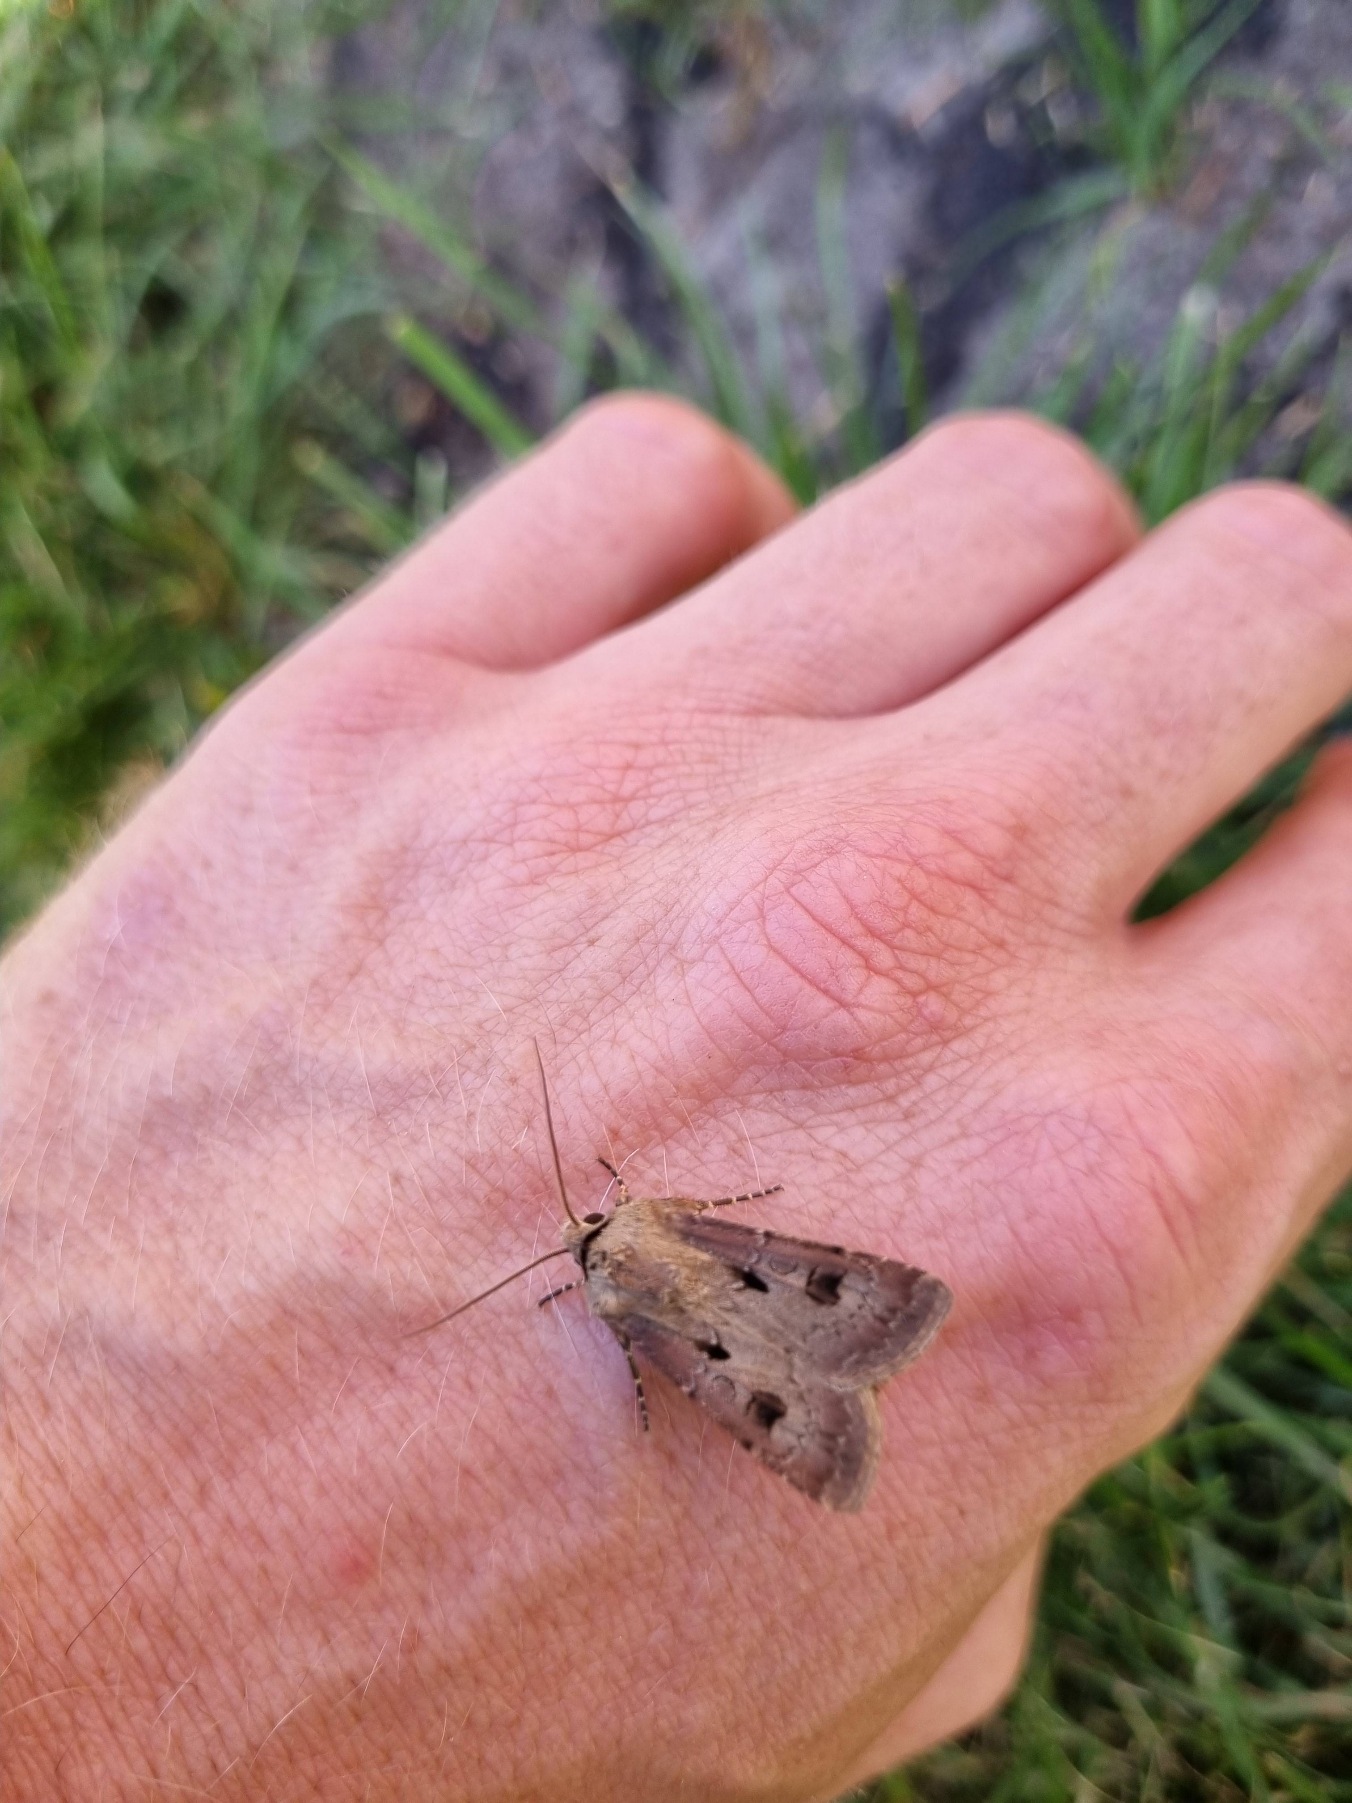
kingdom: Animalia
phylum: Arthropoda
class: Insecta
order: Lepidoptera
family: Noctuidae
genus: Agrotis
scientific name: Agrotis exclamationis
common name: Udråbstegnsugle
